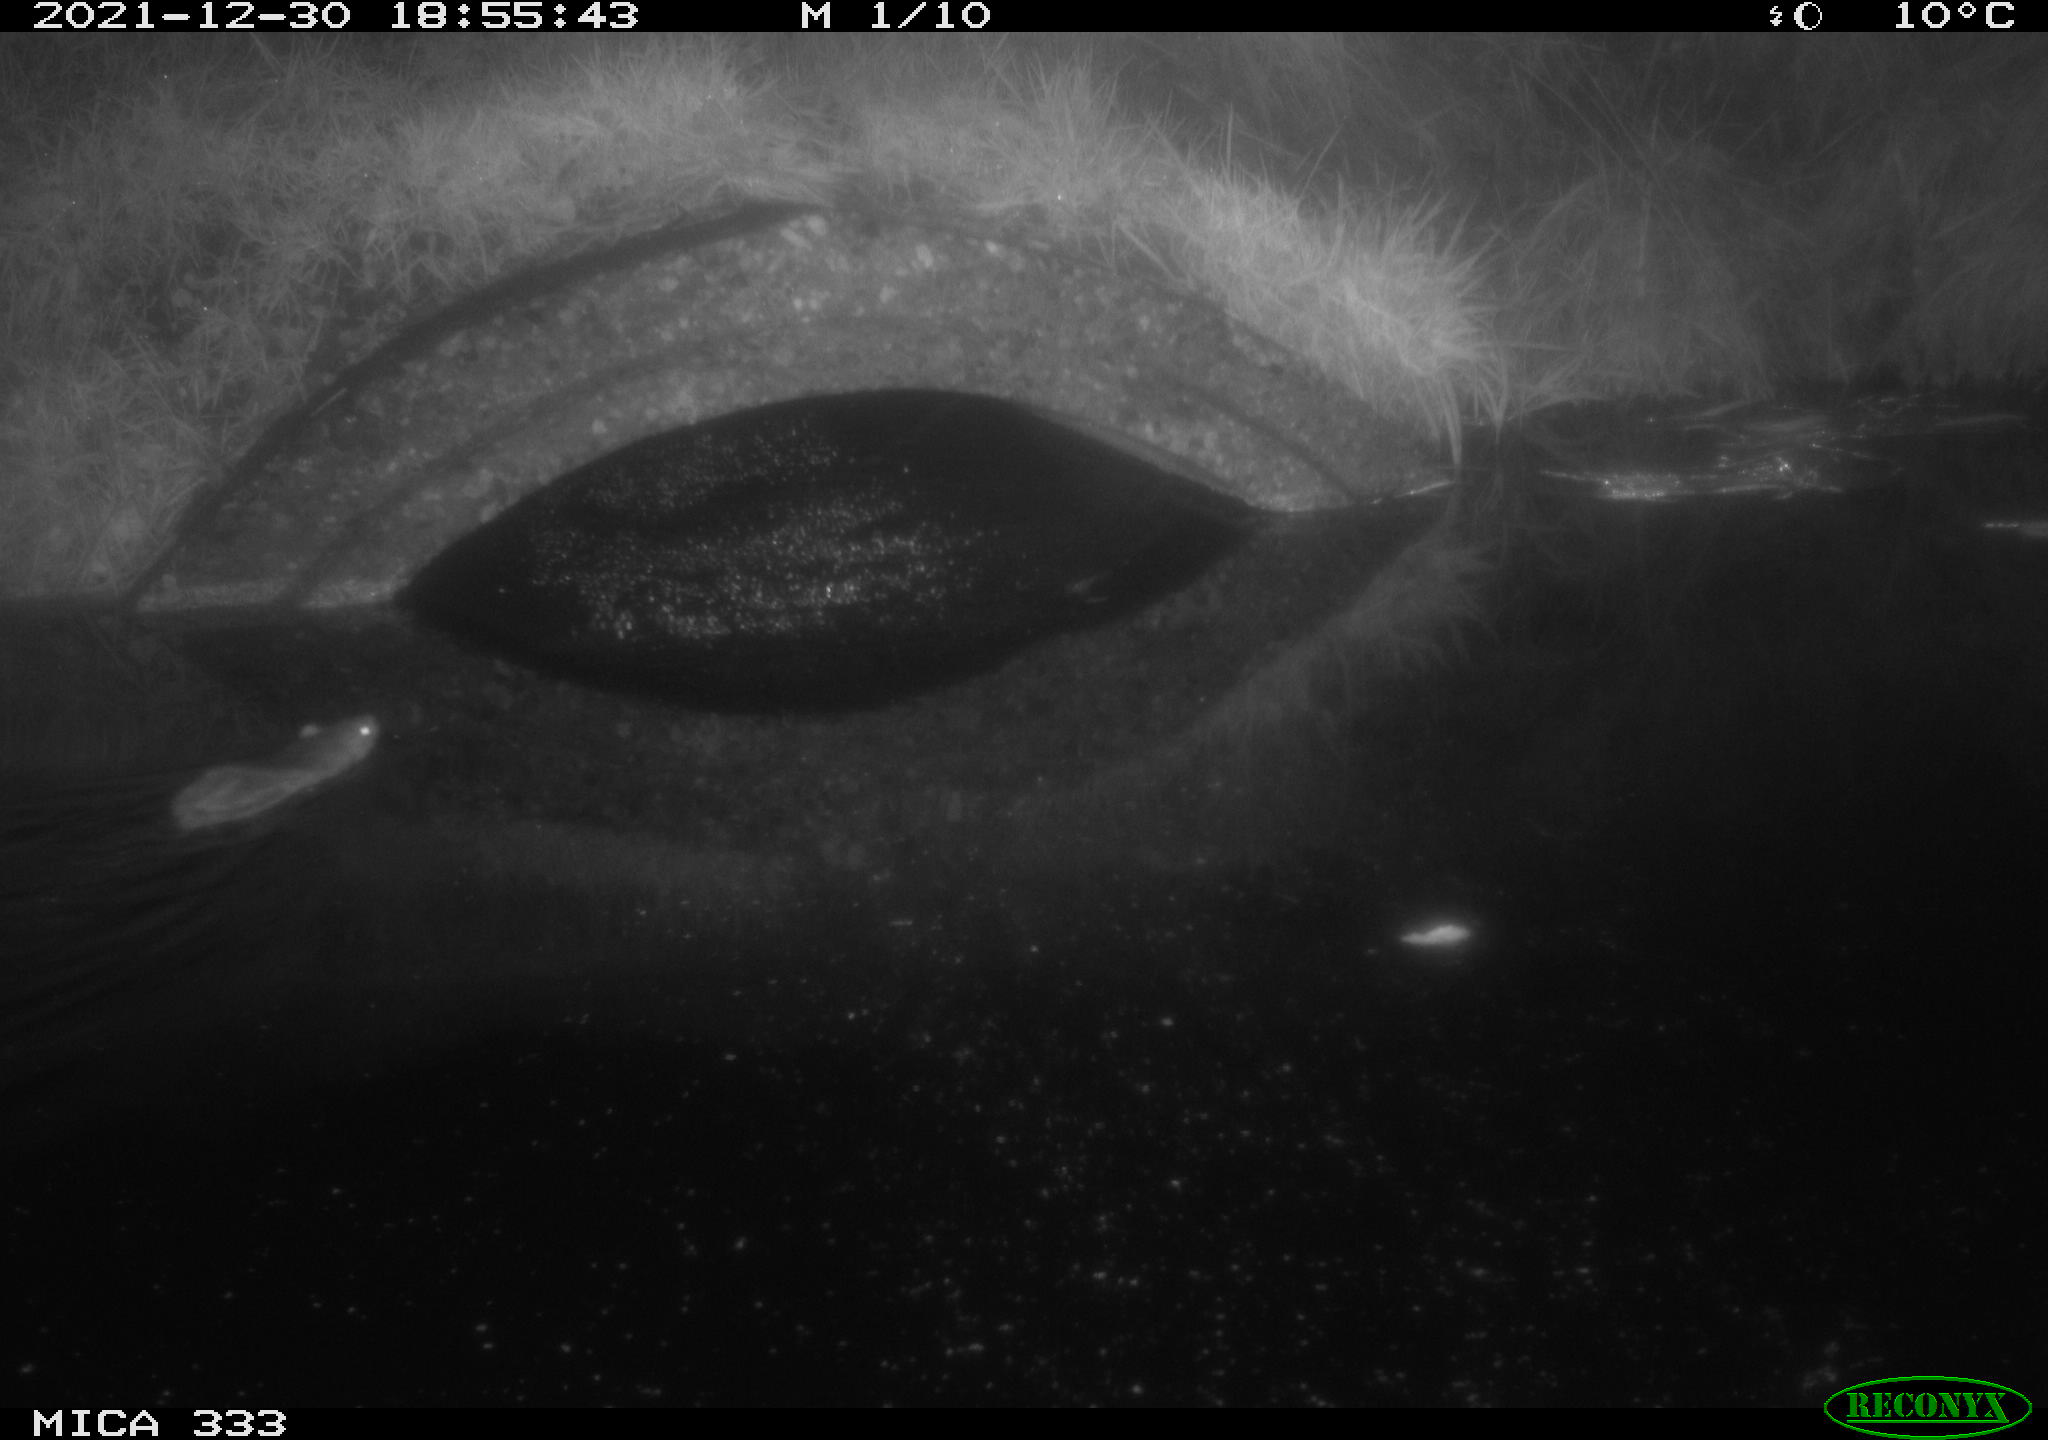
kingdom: Animalia
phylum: Chordata
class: Mammalia
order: Rodentia
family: Muridae
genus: Rattus
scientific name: Rattus norvegicus
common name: Brown rat
